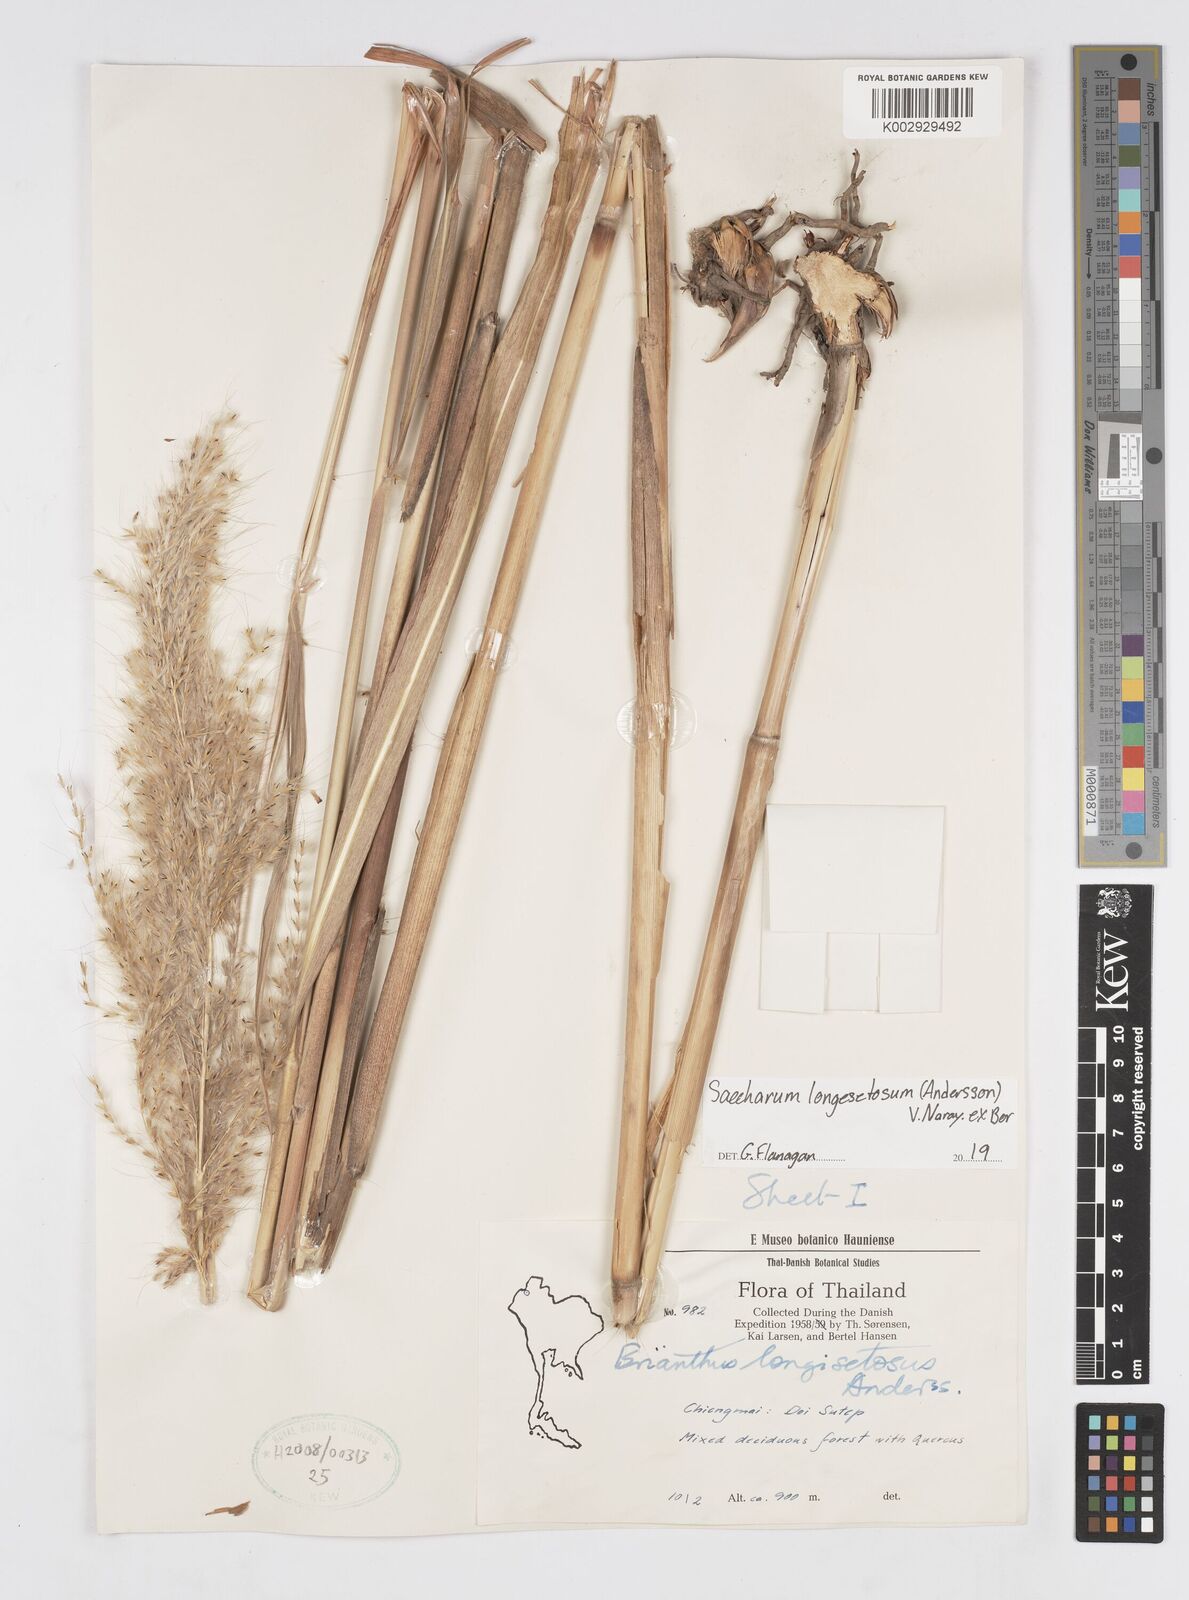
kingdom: Plantae
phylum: Tracheophyta
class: Liliopsida
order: Poales
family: Poaceae
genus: Saccharum
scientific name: Saccharum longesetosum
